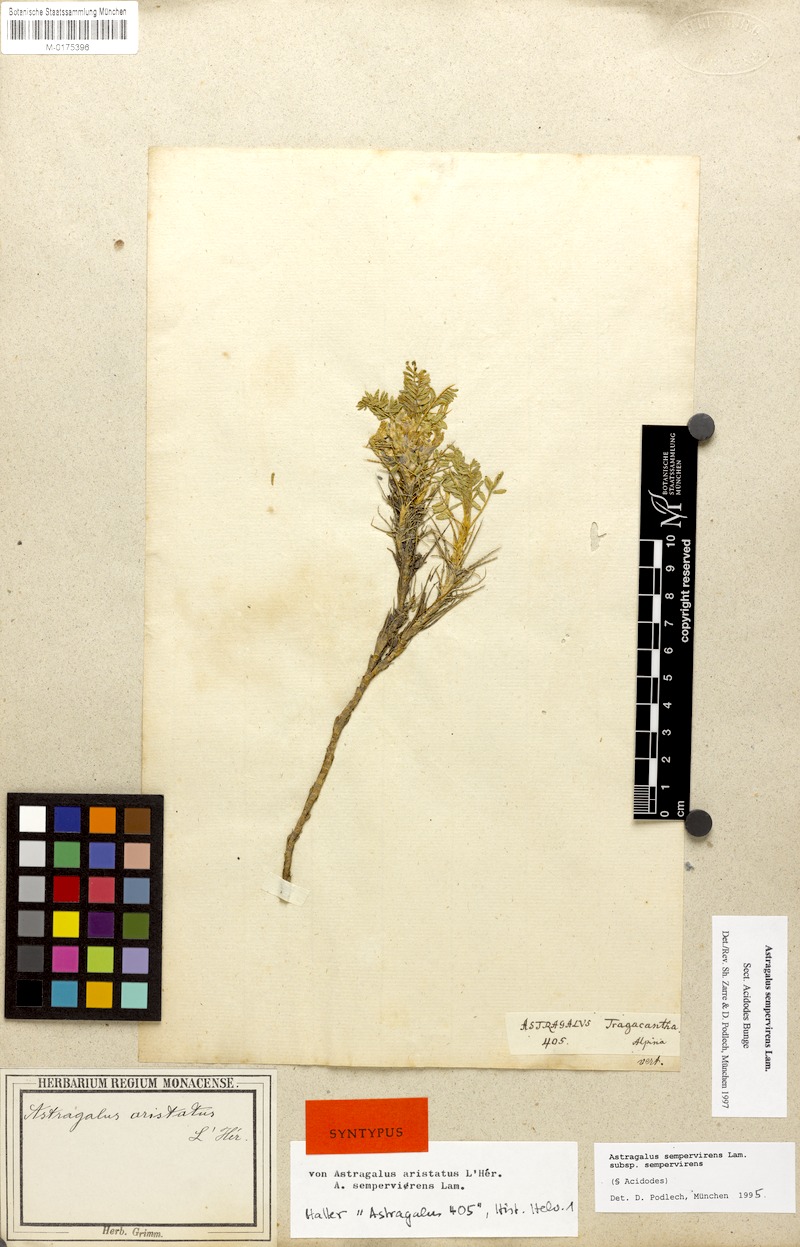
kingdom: Plantae
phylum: Tracheophyta
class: Magnoliopsida
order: Fabales
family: Fabaceae
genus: Astragalus
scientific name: Astragalus
